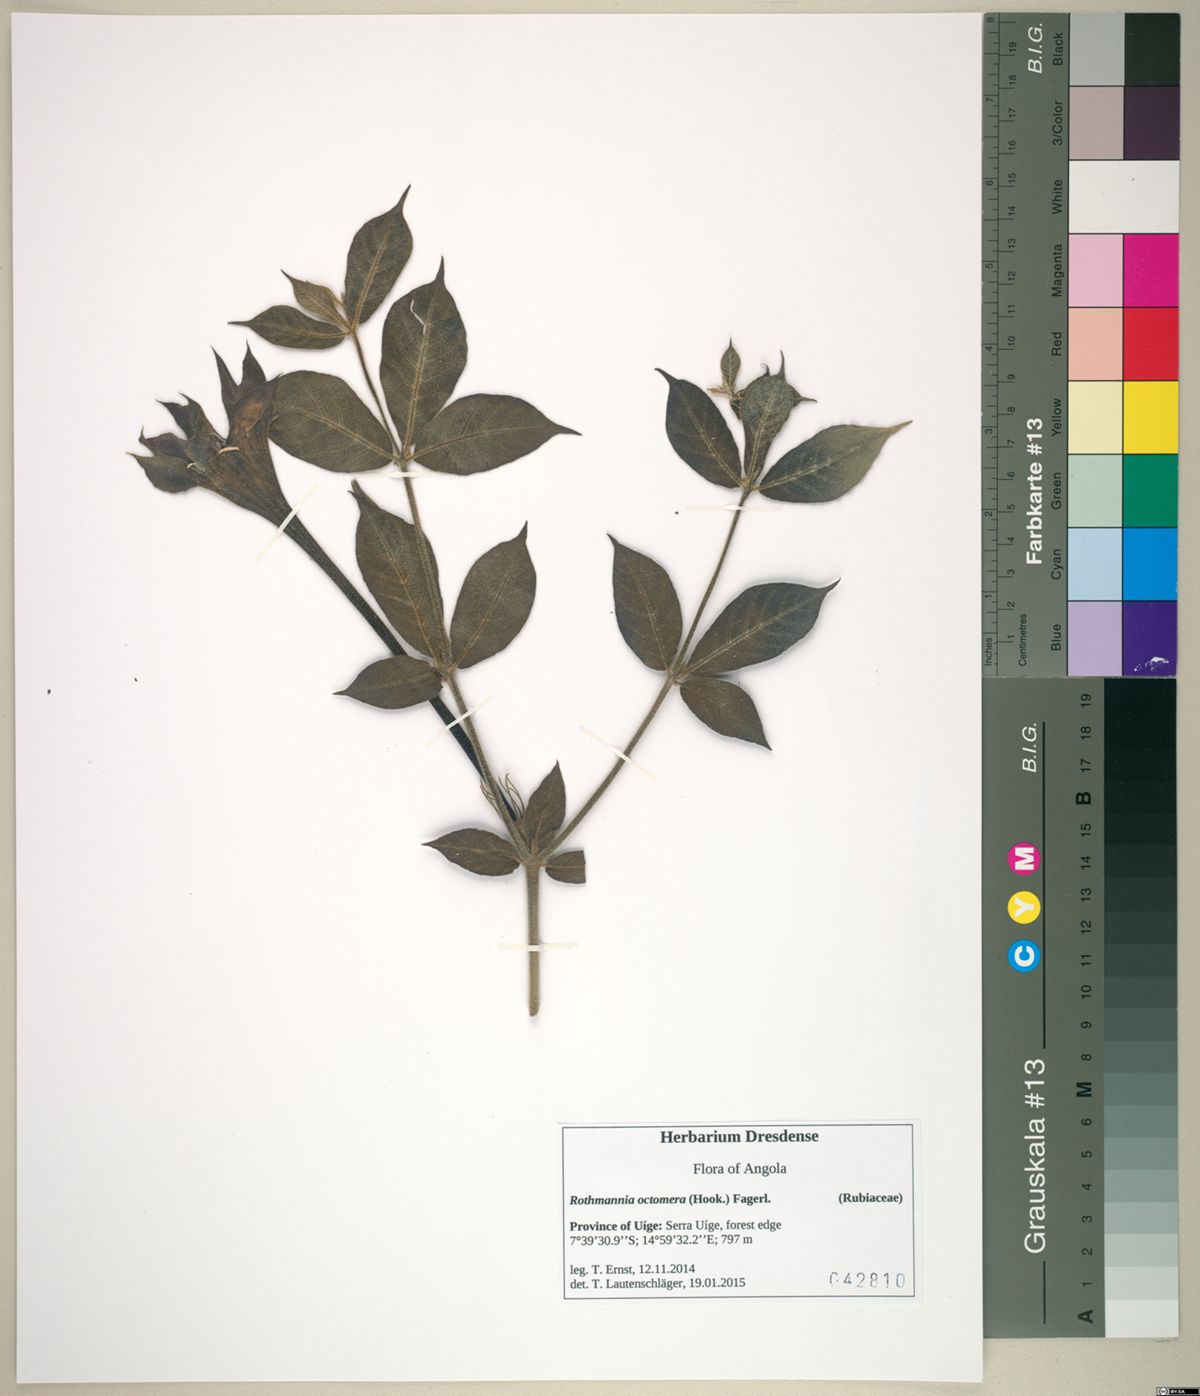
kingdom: Plantae
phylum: Tracheophyta
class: Magnoliopsida
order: Gentianales
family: Rubiaceae
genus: Rothmannia
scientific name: Rothmannia octomera
